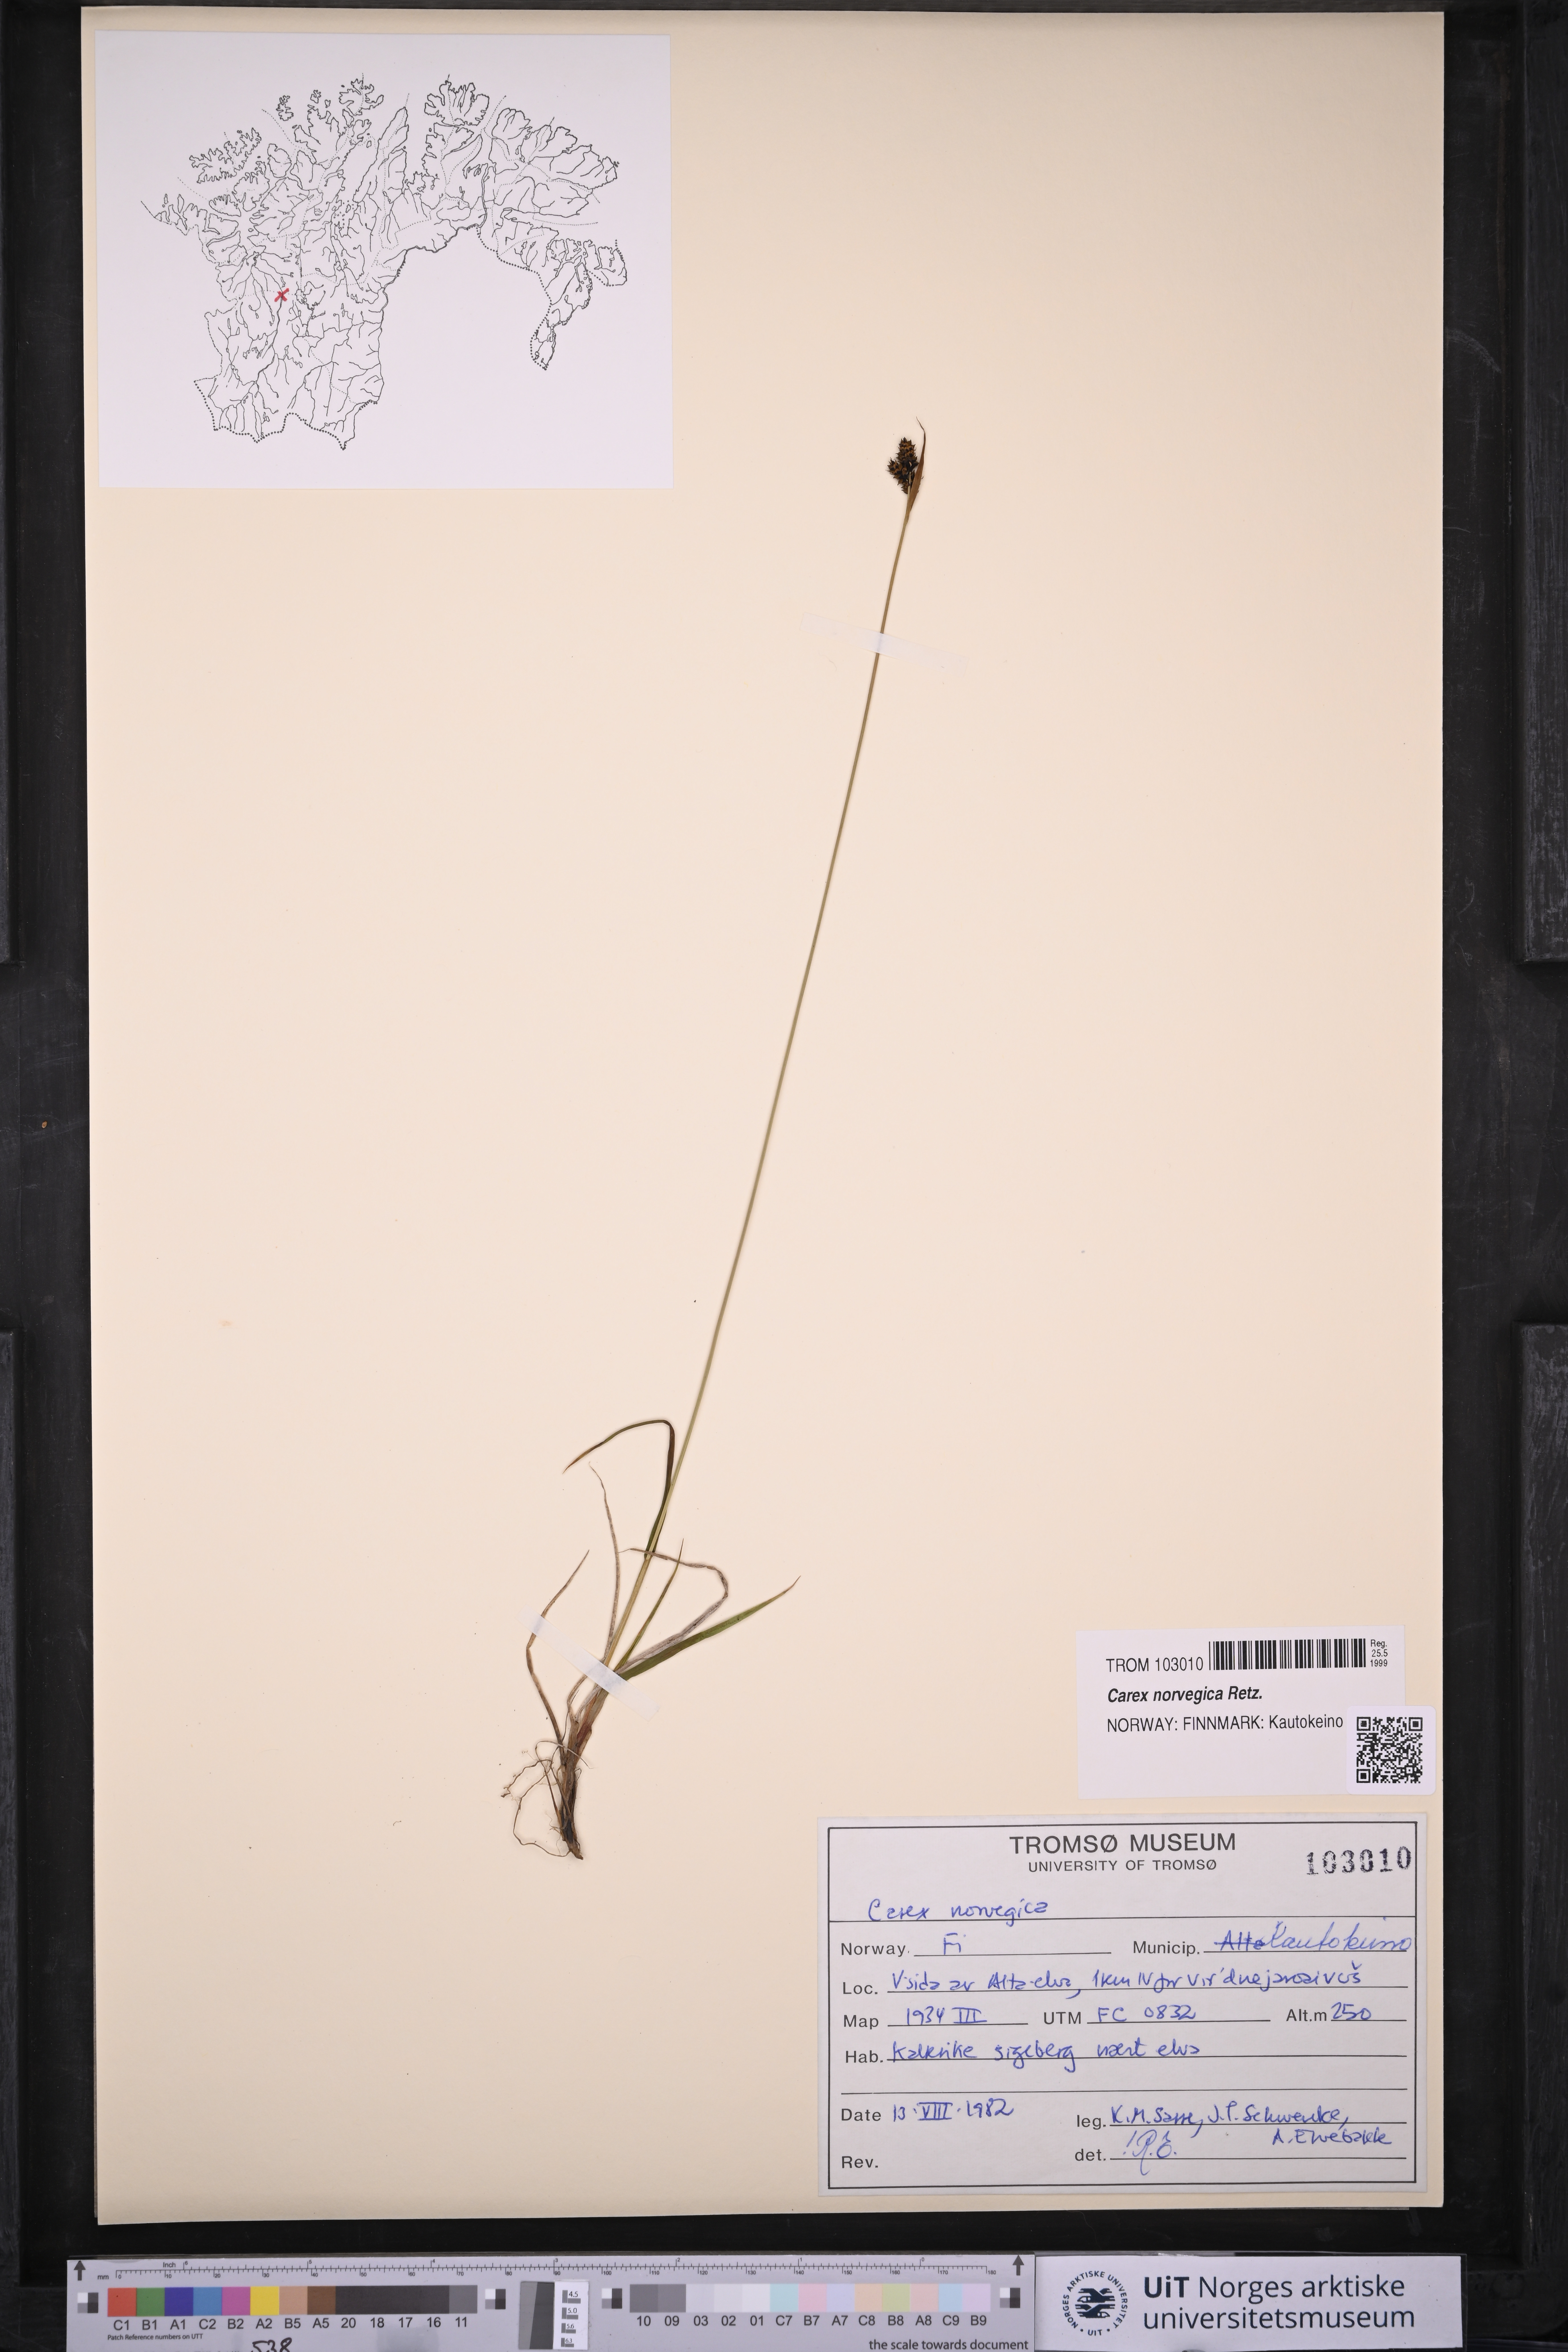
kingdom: Plantae
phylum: Tracheophyta
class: Liliopsida
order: Poales
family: Cyperaceae
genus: Carex
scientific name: Carex norvegica
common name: Close-headed alpine-sedge
